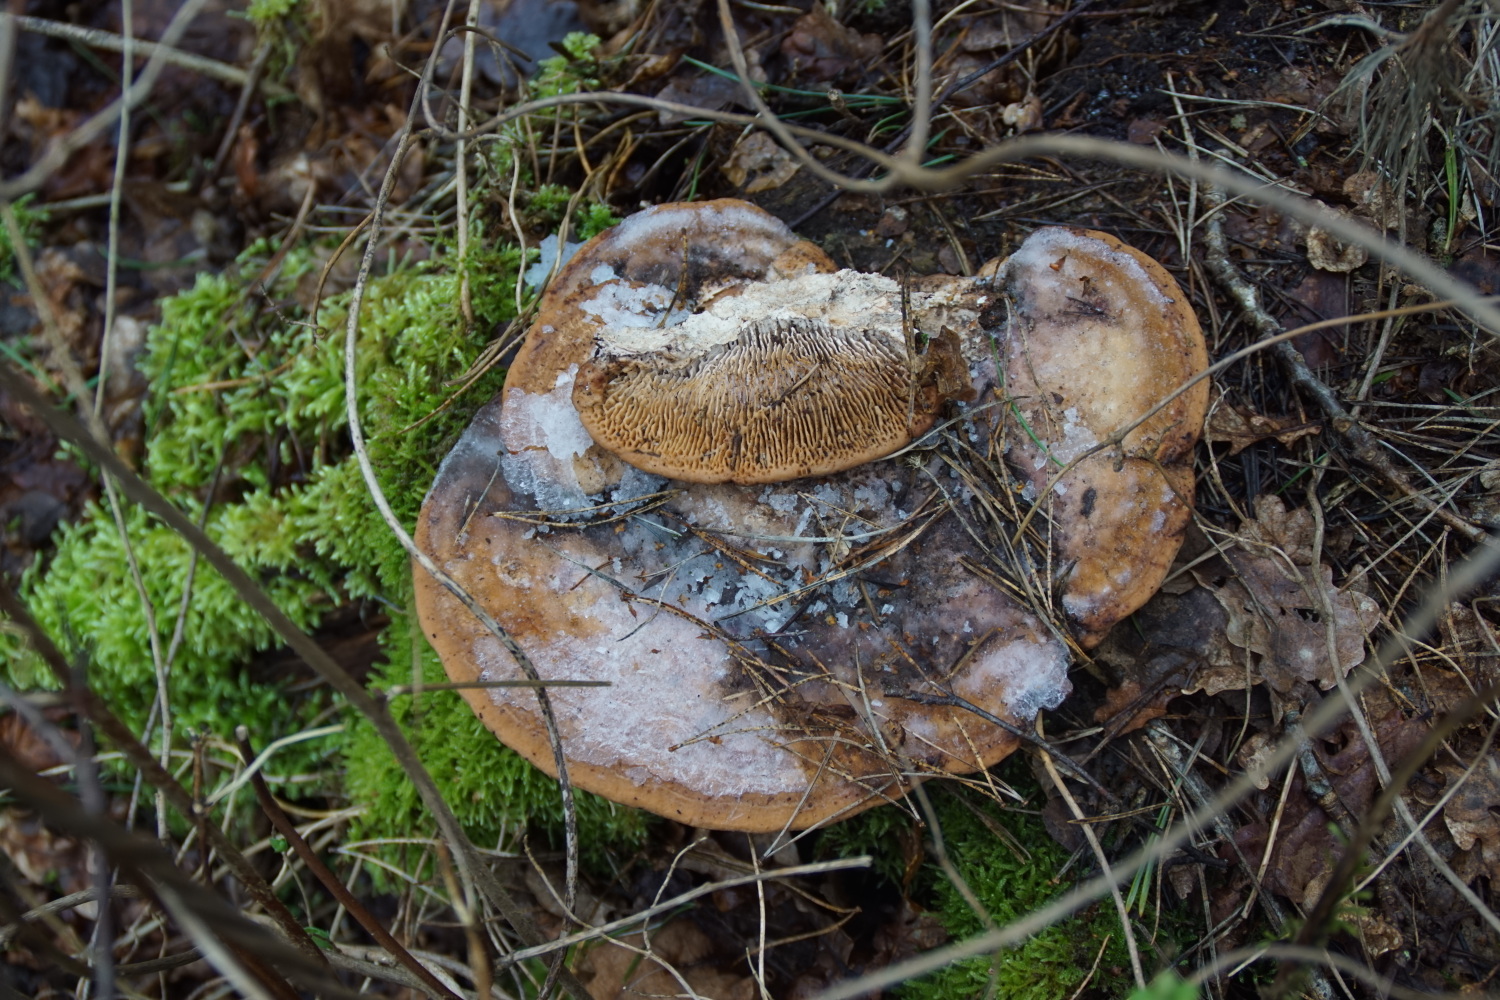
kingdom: Fungi
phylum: Basidiomycota
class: Agaricomycetes
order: Polyporales
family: Fomitopsidaceae
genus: Daedalea
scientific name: Daedalea quercina
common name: ege-labyrintsvamp
